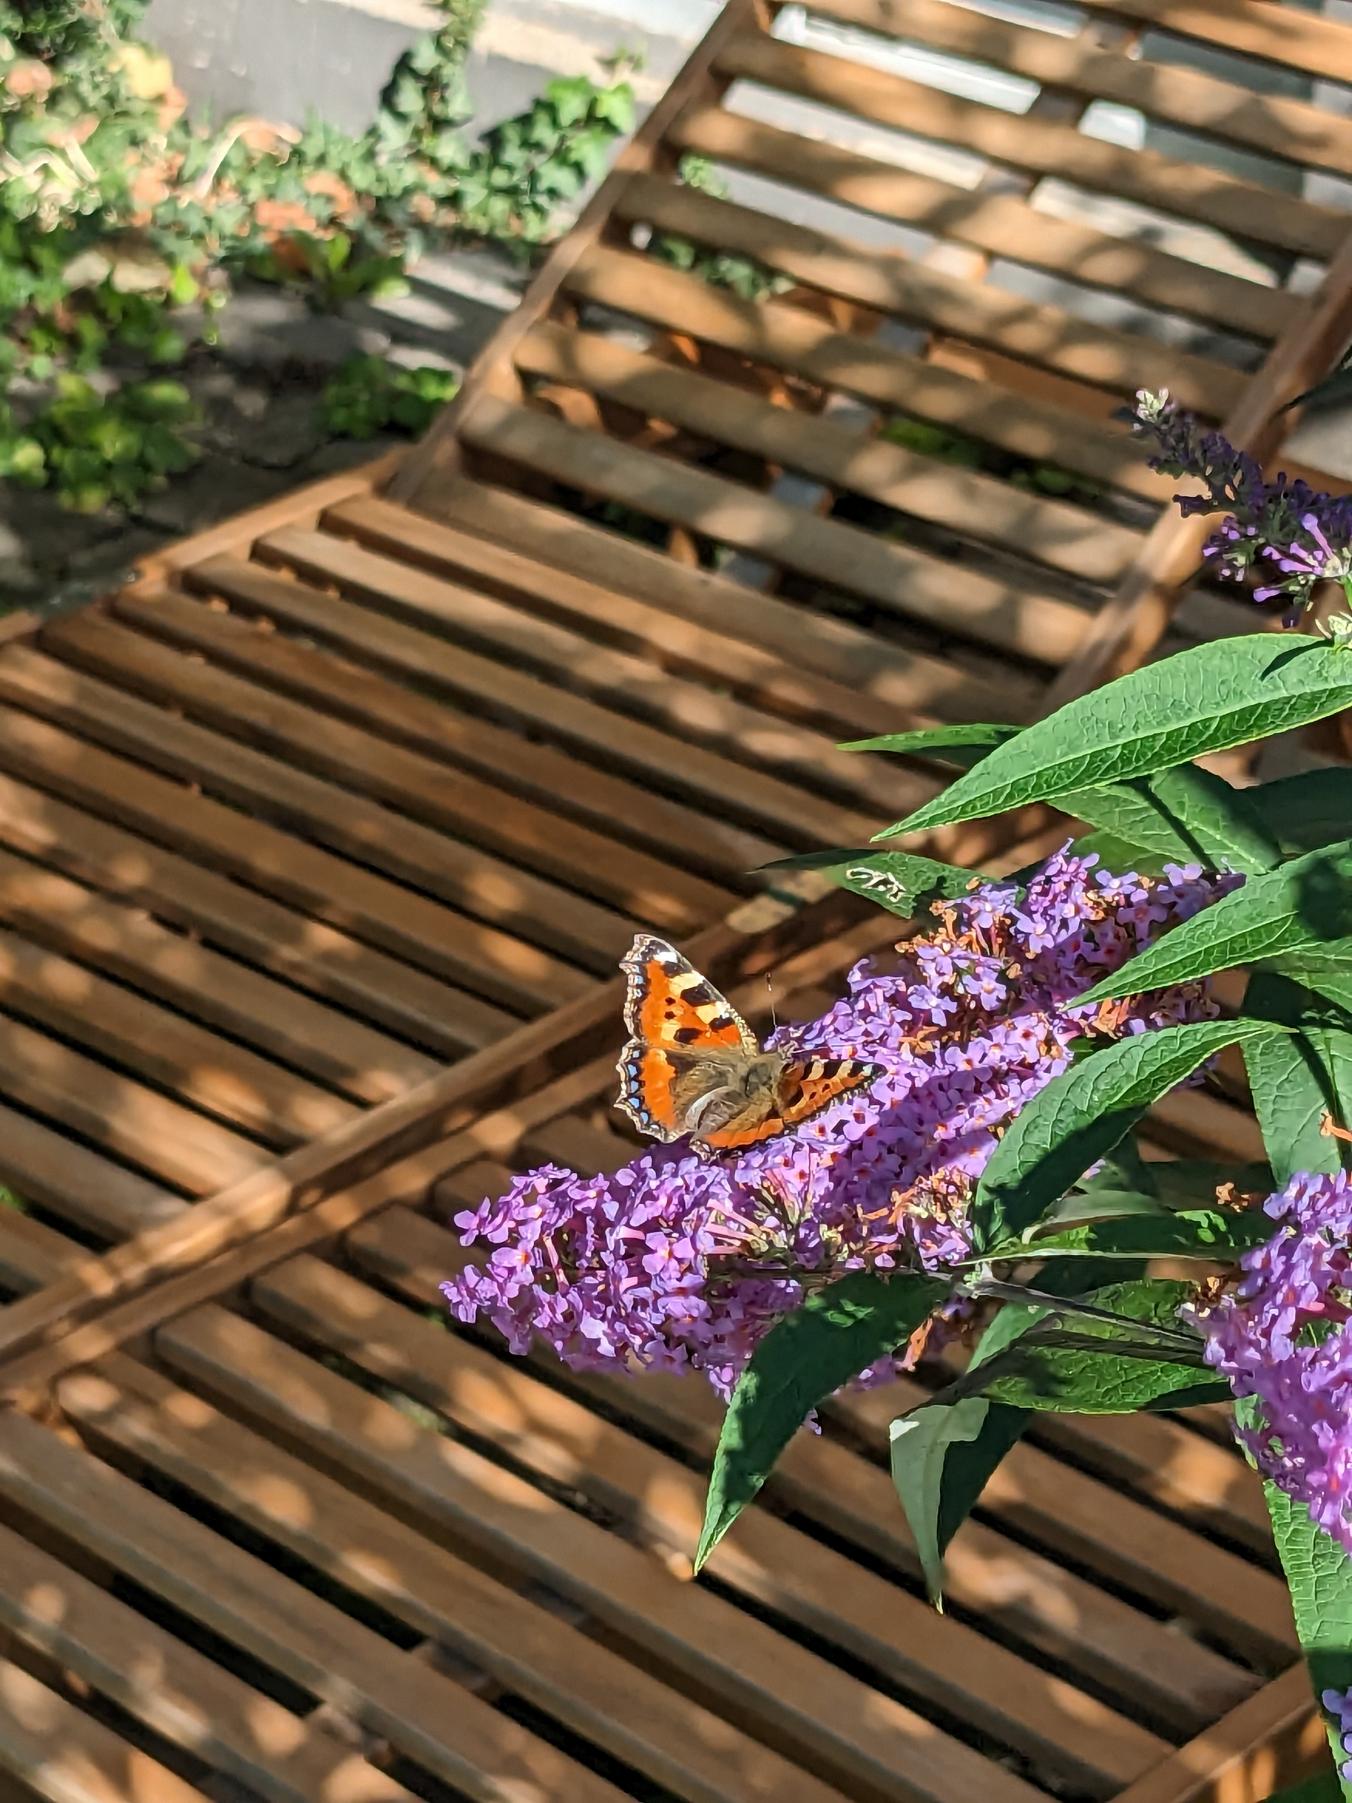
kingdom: Animalia
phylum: Arthropoda
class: Insecta
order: Lepidoptera
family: Nymphalidae
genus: Aglais
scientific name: Aglais urticae
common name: Nældens takvinge
